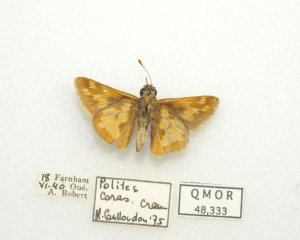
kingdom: Animalia
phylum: Arthropoda
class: Insecta
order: Lepidoptera
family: Hesperiidae
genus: Polites
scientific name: Polites coras
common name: Peck's Skipper
